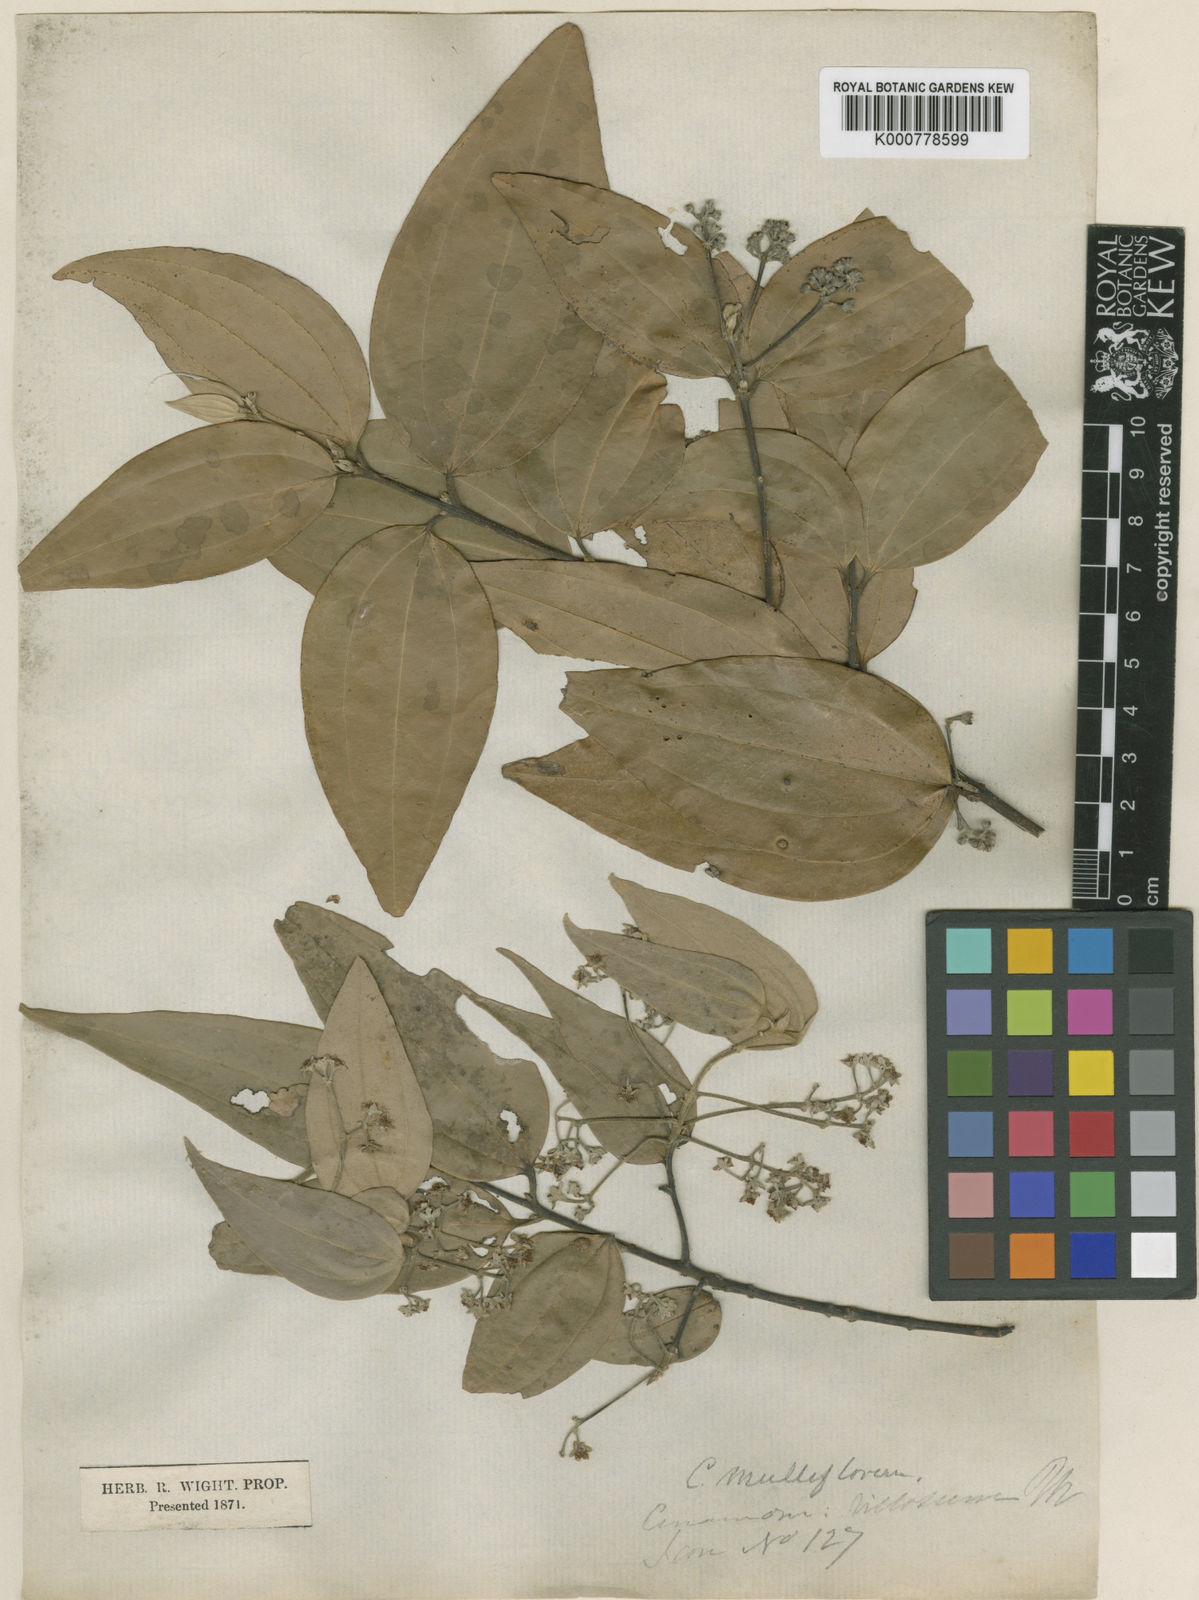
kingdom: Plantae
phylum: Tracheophyta
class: Magnoliopsida
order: Laurales
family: Lauraceae
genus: Cinnamomum
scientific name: Cinnamomum dubium
